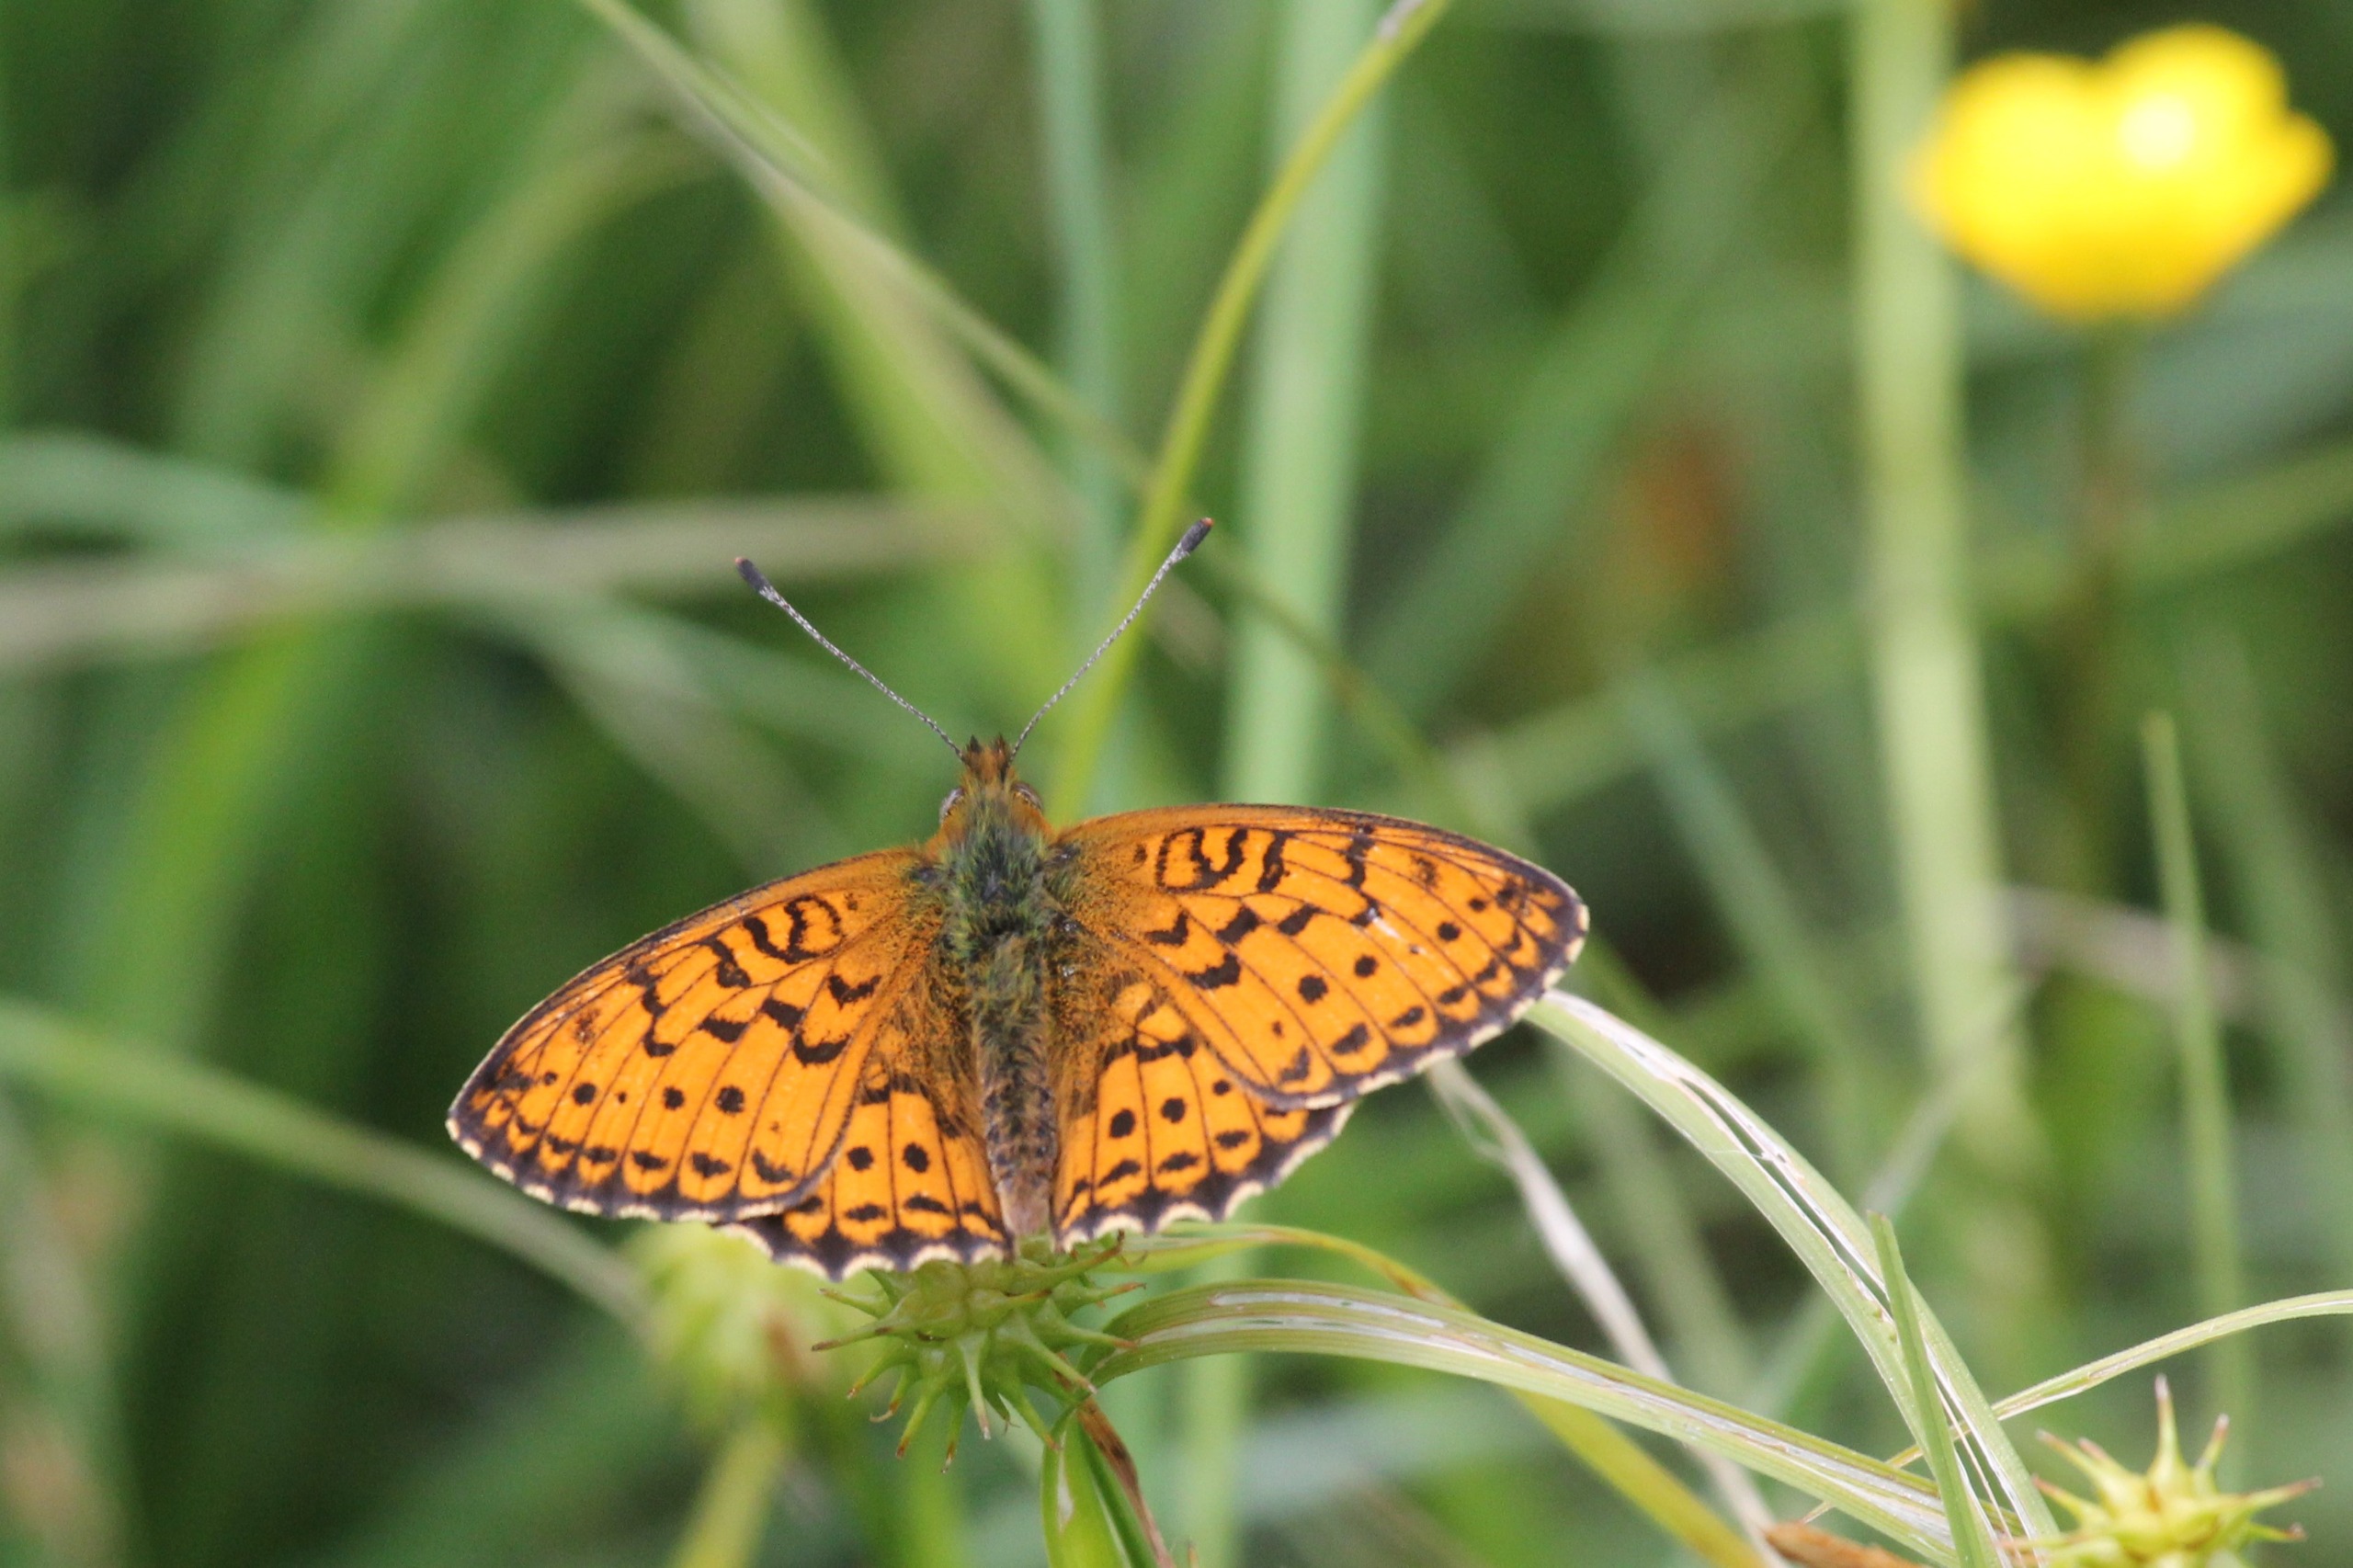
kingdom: Animalia
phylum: Arthropoda
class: Insecta
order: Lepidoptera
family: Nymphalidae
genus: Brenthis
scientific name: Brenthis ino
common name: Engperlemorsommerfugl
